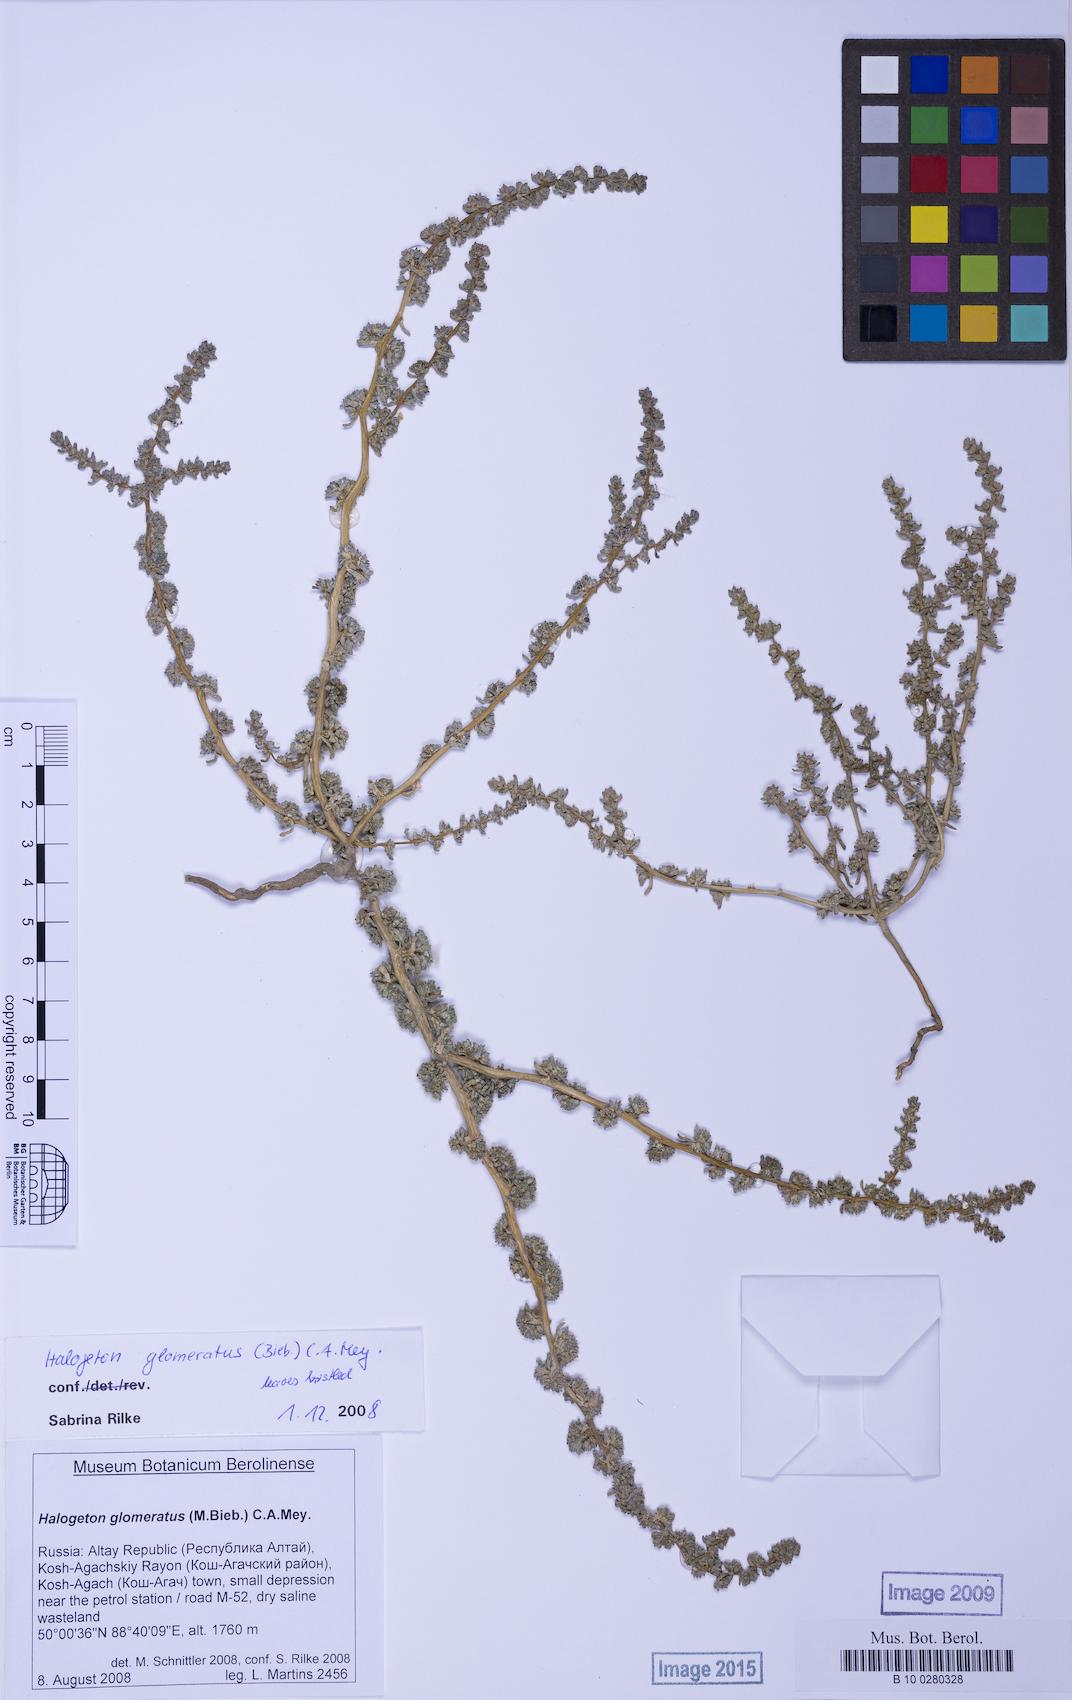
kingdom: Plantae
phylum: Tracheophyta
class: Magnoliopsida
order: Caryophyllales
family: Amaranthaceae
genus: Halogeton
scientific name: Halogeton glomeratus
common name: Saltlover
